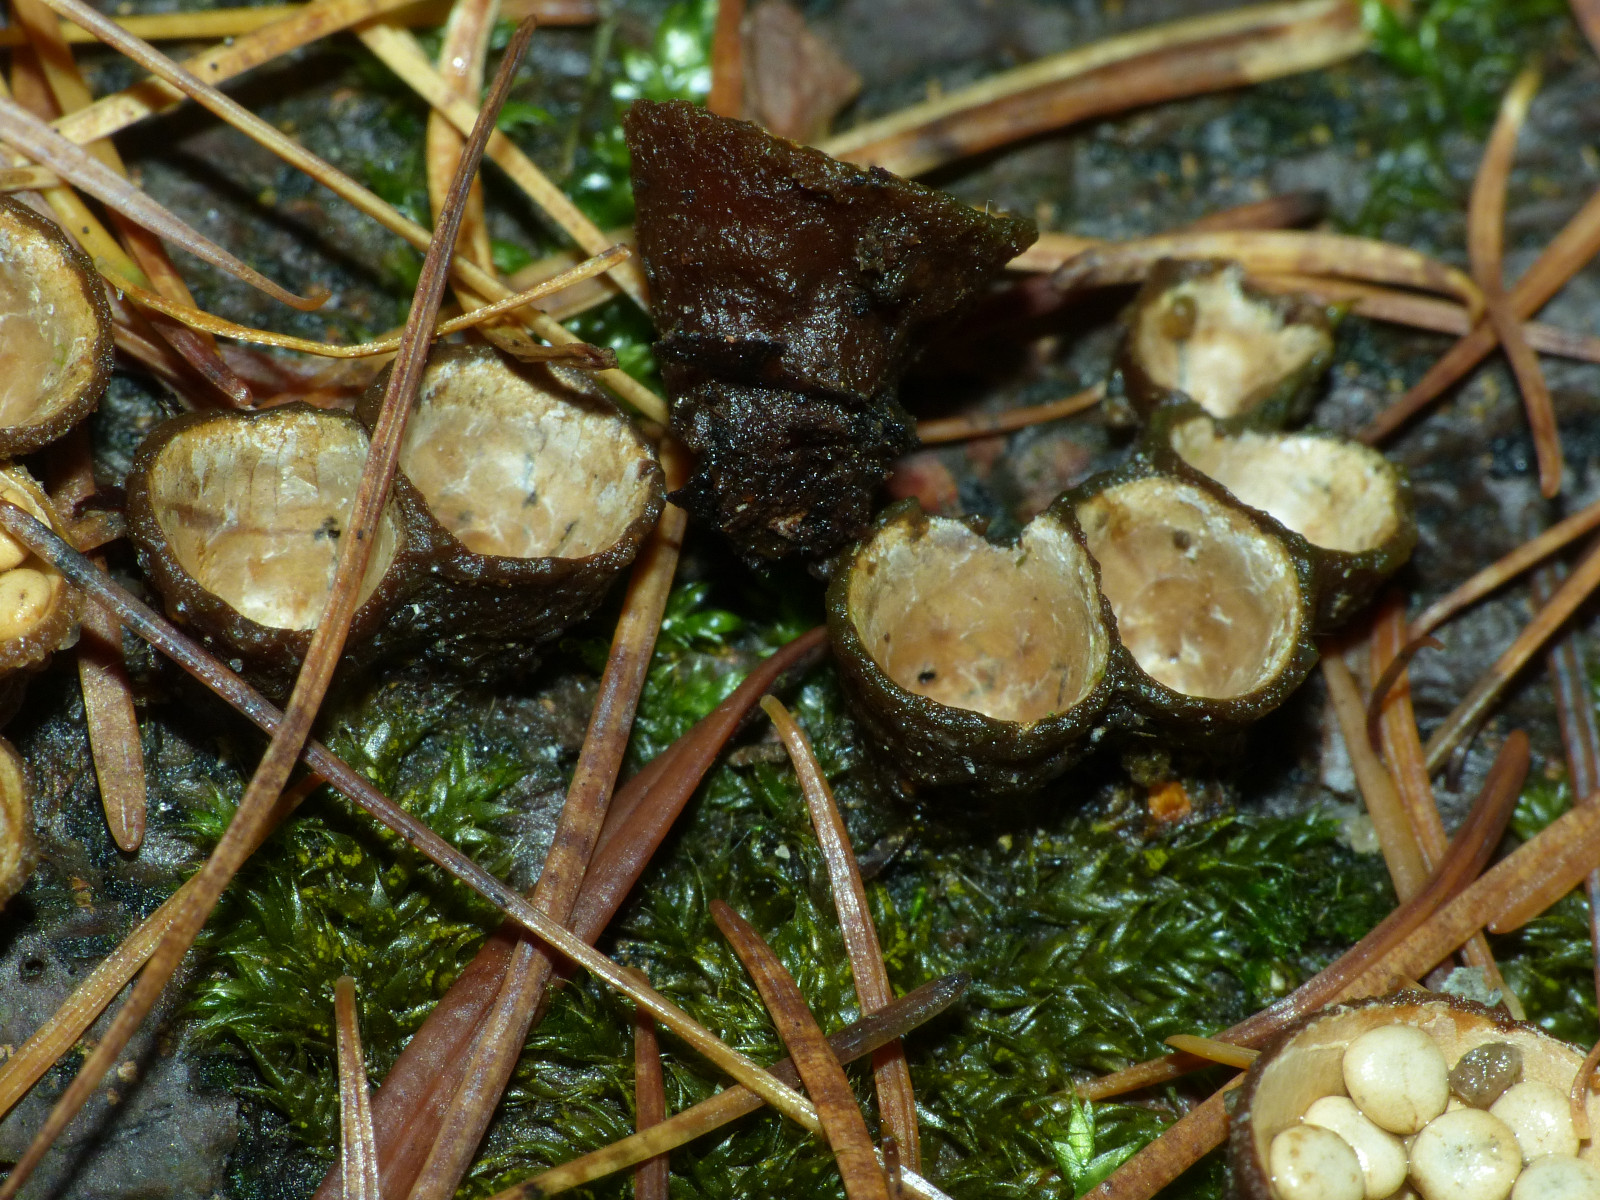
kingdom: Fungi
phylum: Basidiomycota
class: Agaricomycetes
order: Agaricales
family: Nidulariaceae
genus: Crucibulum
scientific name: Crucibulum crucibuliforme
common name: krukkesvamp
